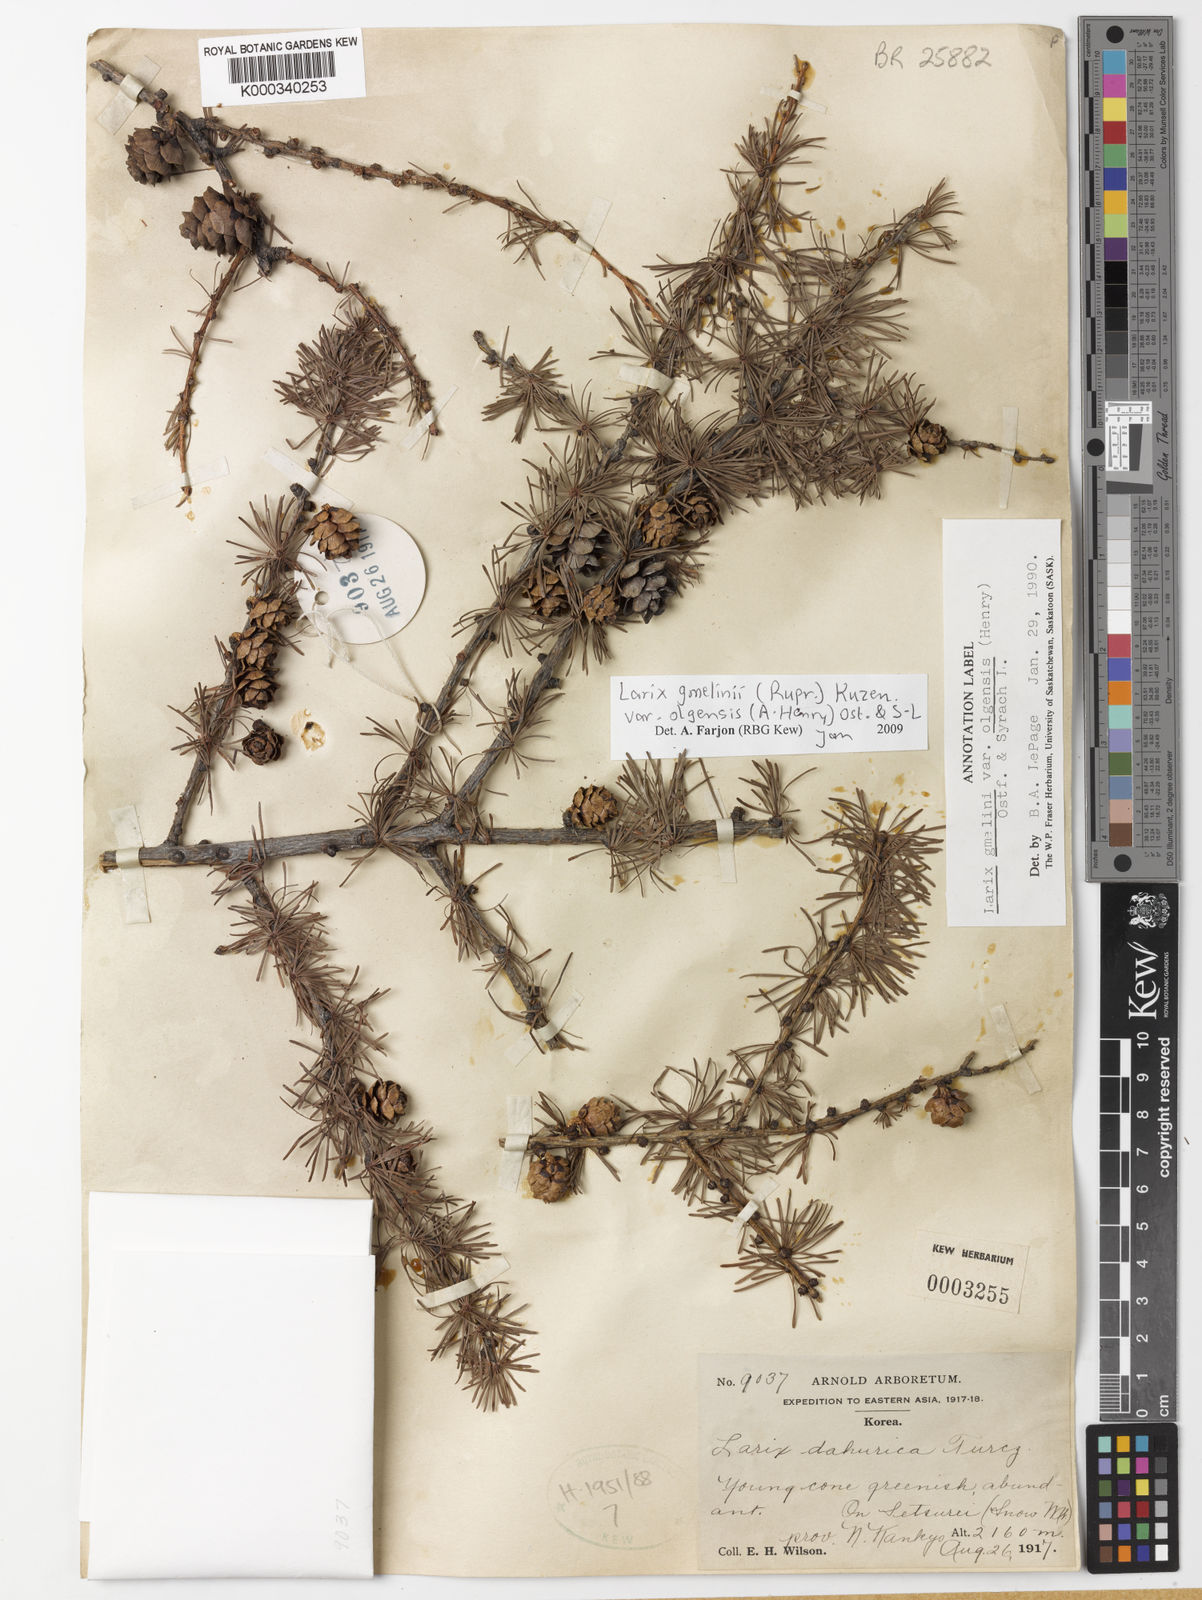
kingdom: Plantae
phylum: Tracheophyta
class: Pinopsida
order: Pinales
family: Pinaceae
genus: Larix
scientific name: Larix gmelinii
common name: Dahurian larch
